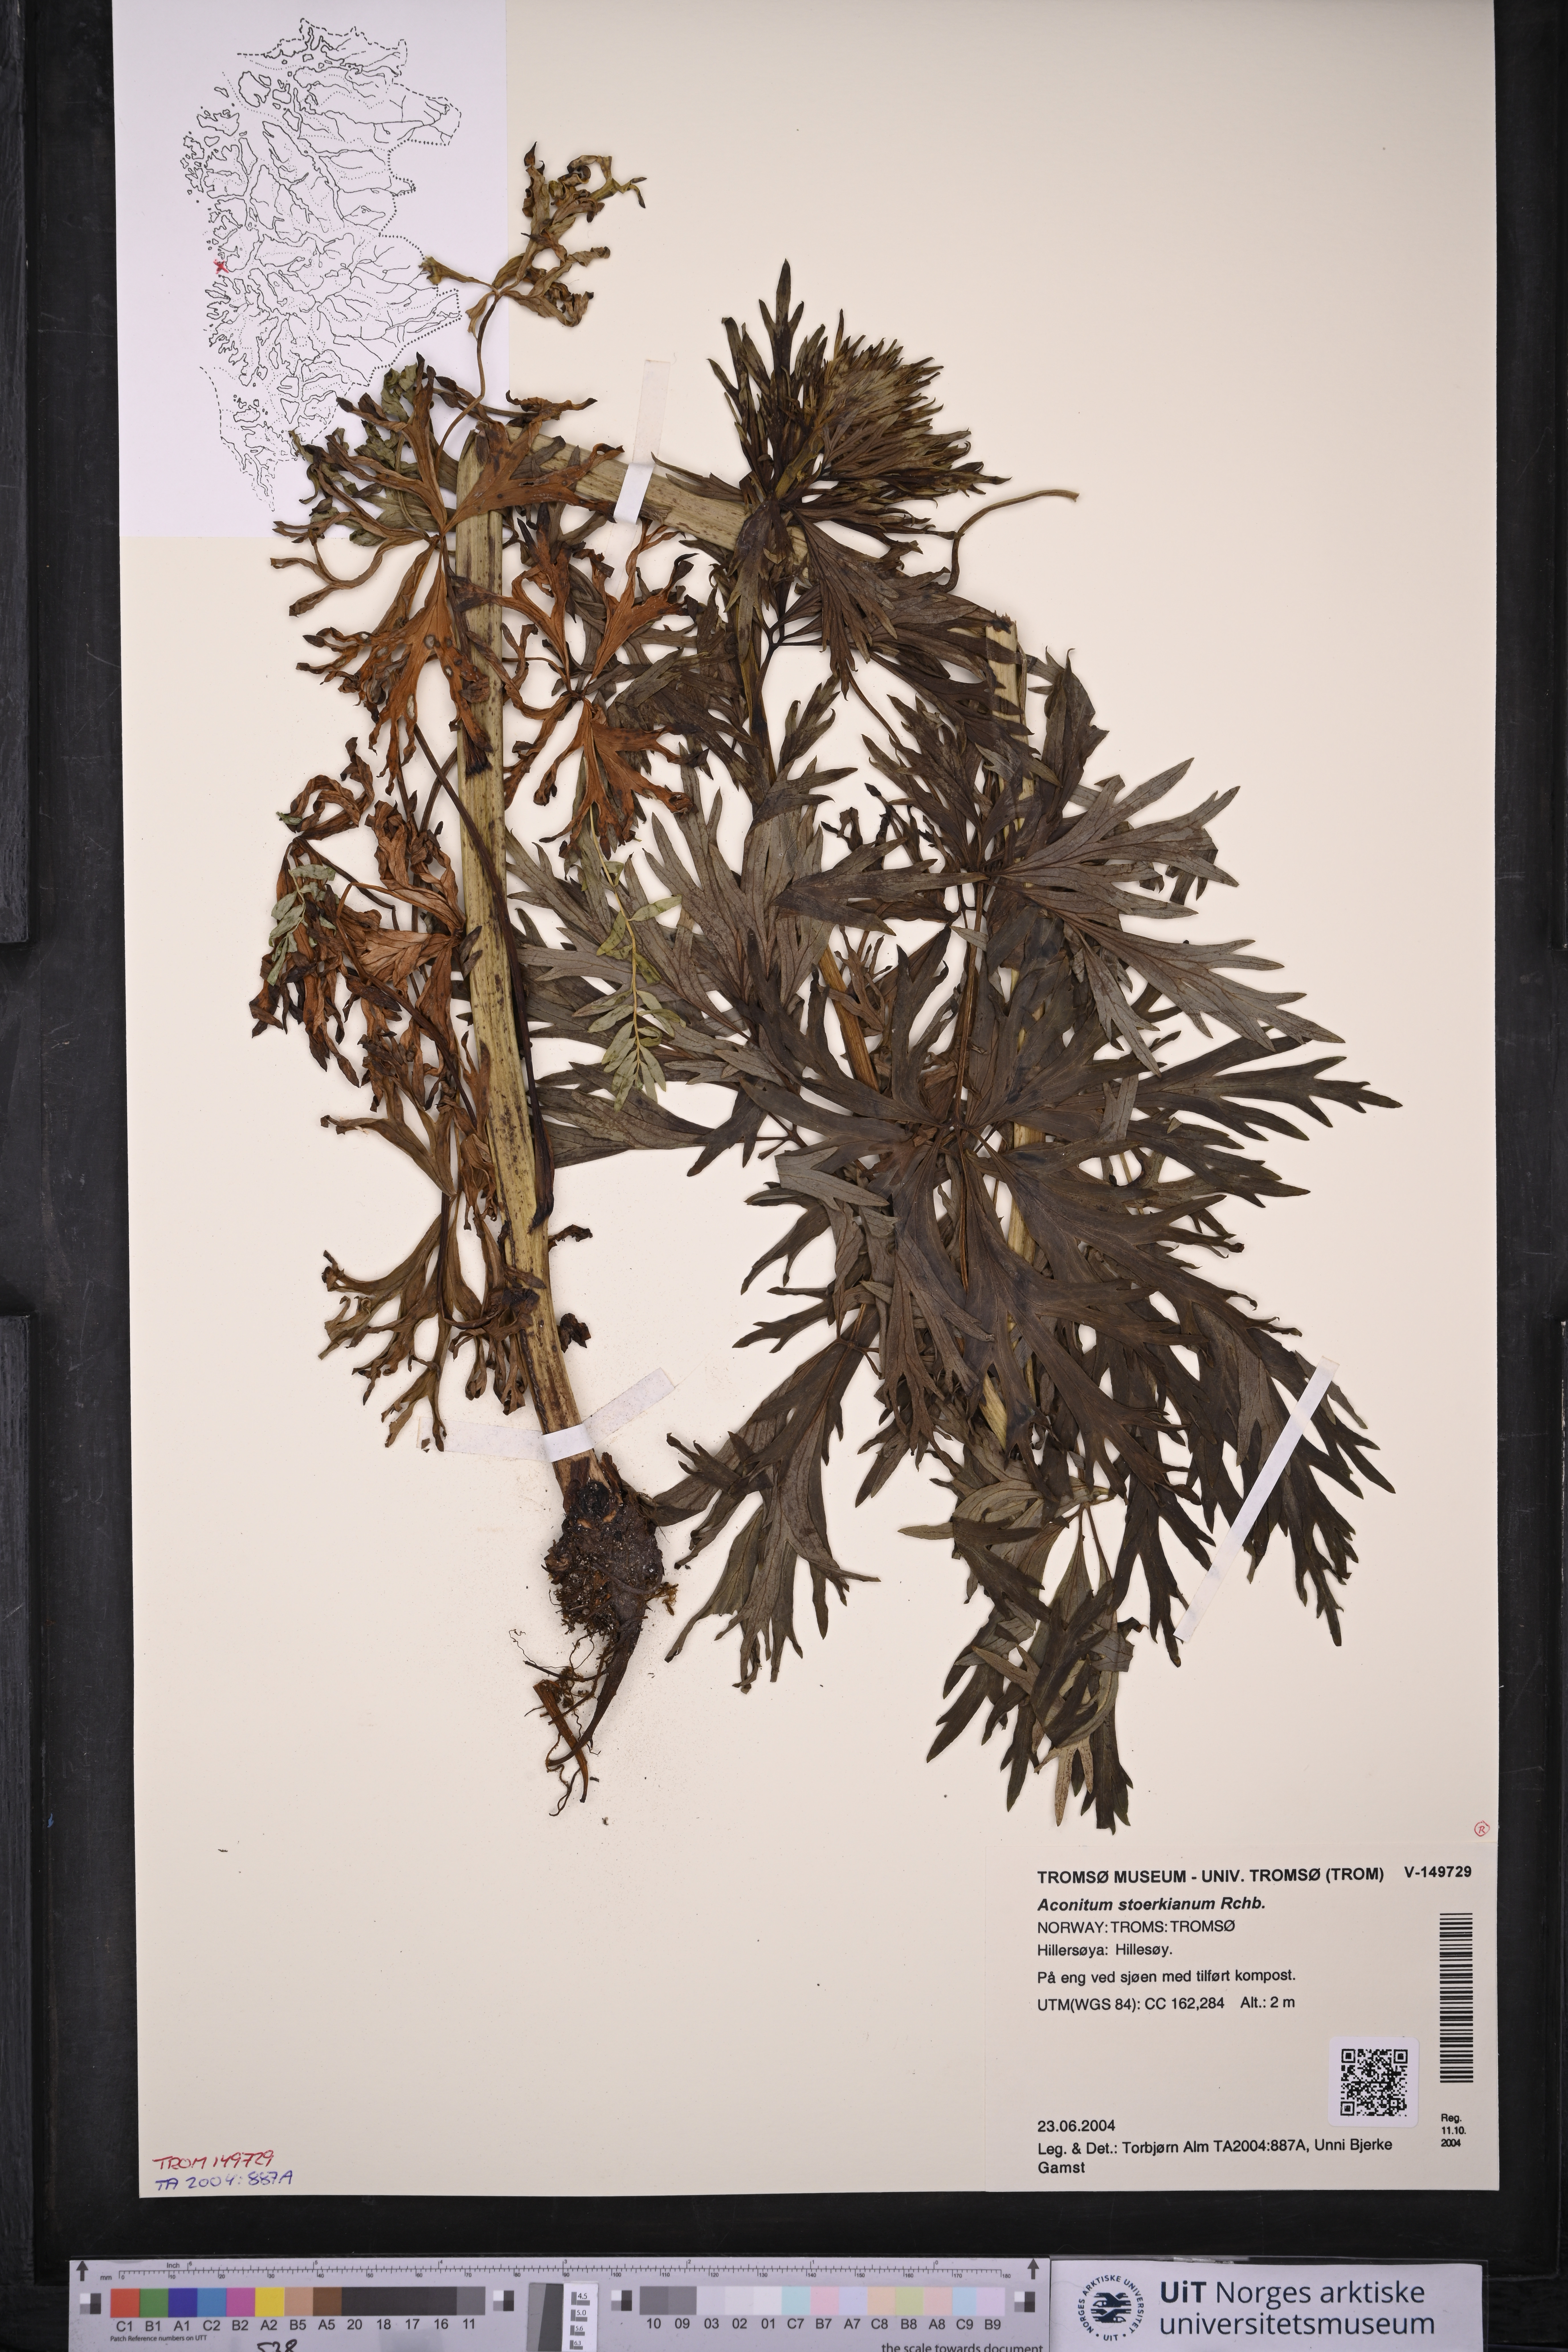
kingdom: Plantae
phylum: Tracheophyta
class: Magnoliopsida
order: Ranunculales
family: Ranunculaceae
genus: Aconitum
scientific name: Aconitum cammarum
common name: Hybrid monk's-hood
